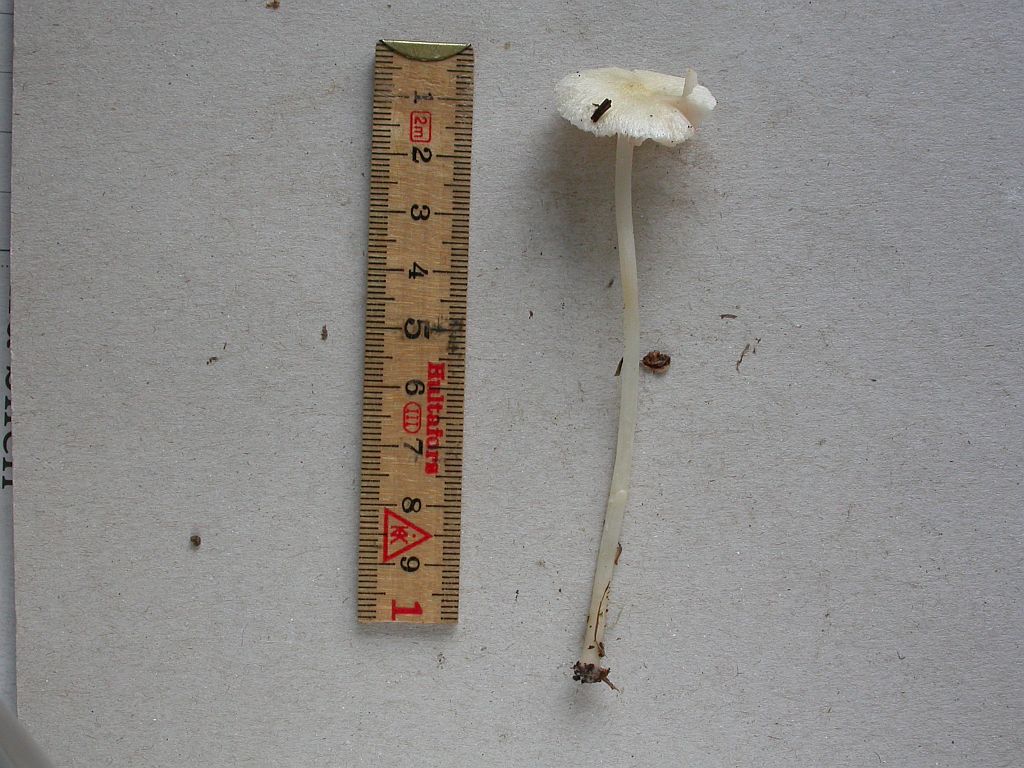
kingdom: Fungi
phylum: Basidiomycota
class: Agaricomycetes
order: Agaricales
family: Entolomataceae
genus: Entoloma
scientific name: Entoloma sericellum
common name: silkehvid rødblad
